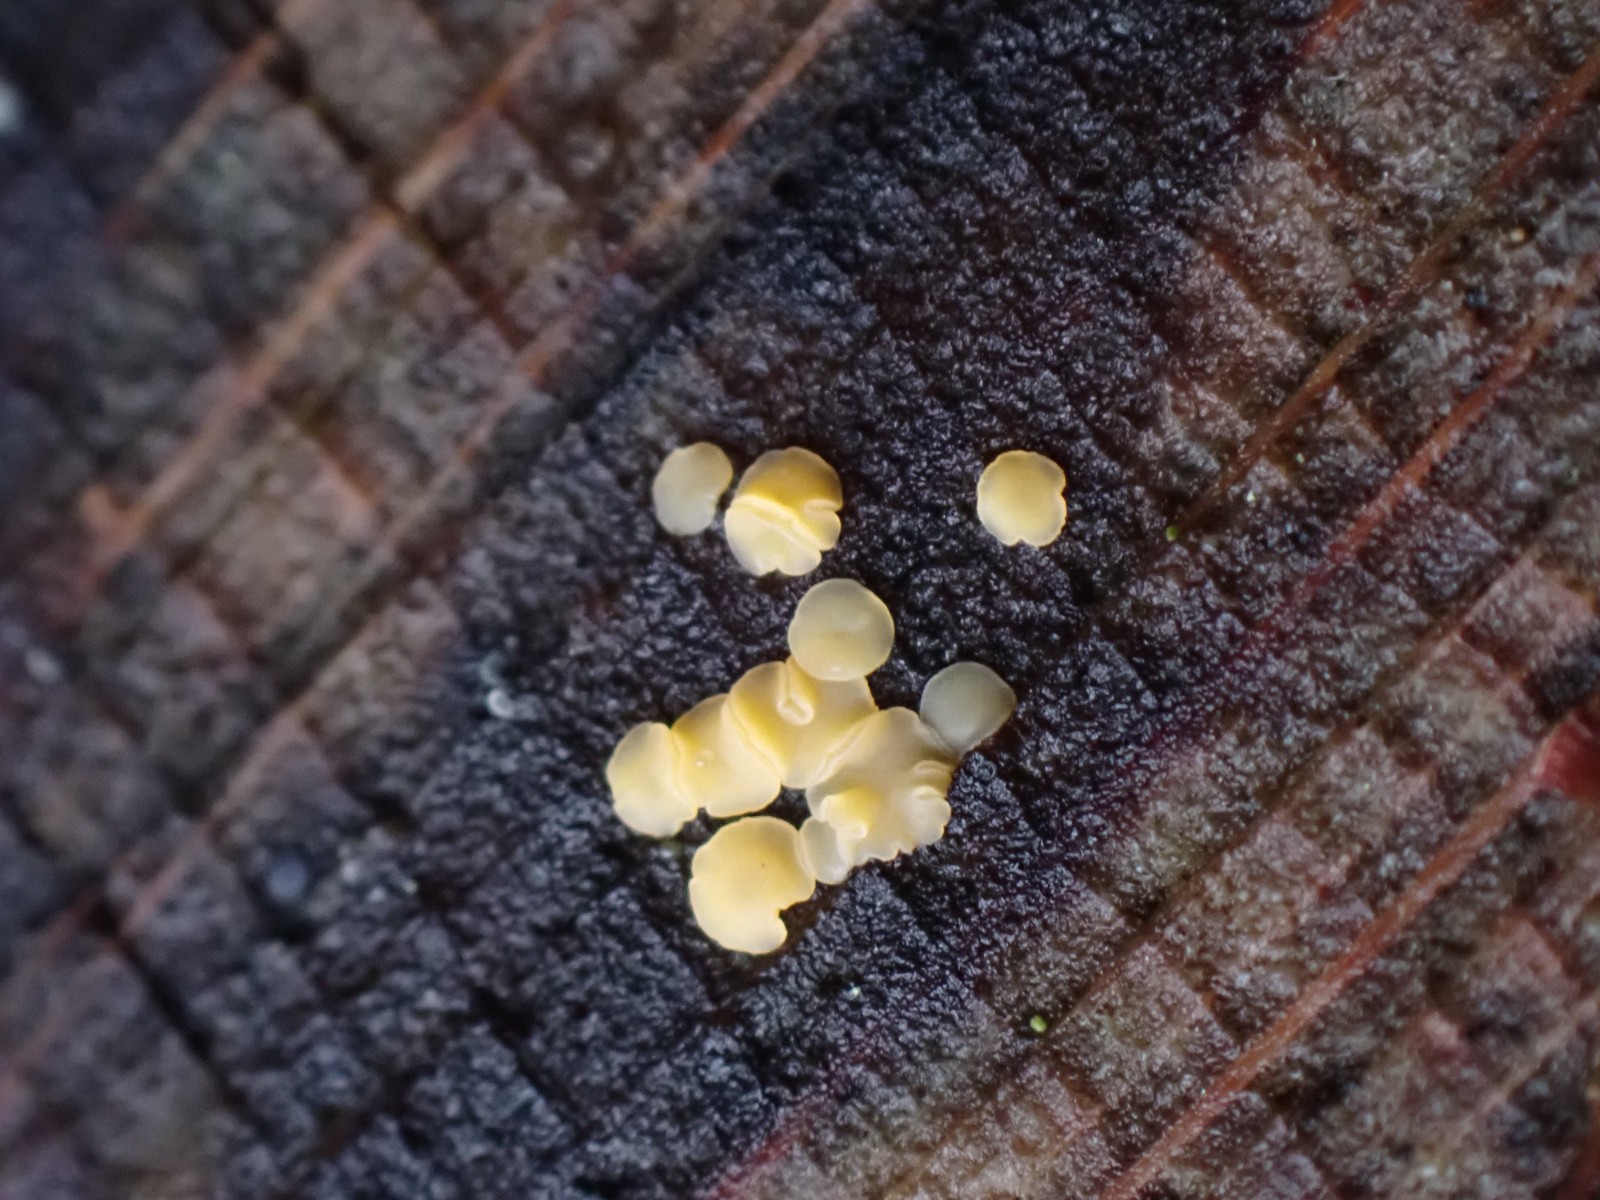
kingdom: Fungi
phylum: Ascomycota
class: Leotiomycetes
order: Helotiales
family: Helotiaceae
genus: Bispora
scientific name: Bispora pallescens
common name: måtte-snitskive
